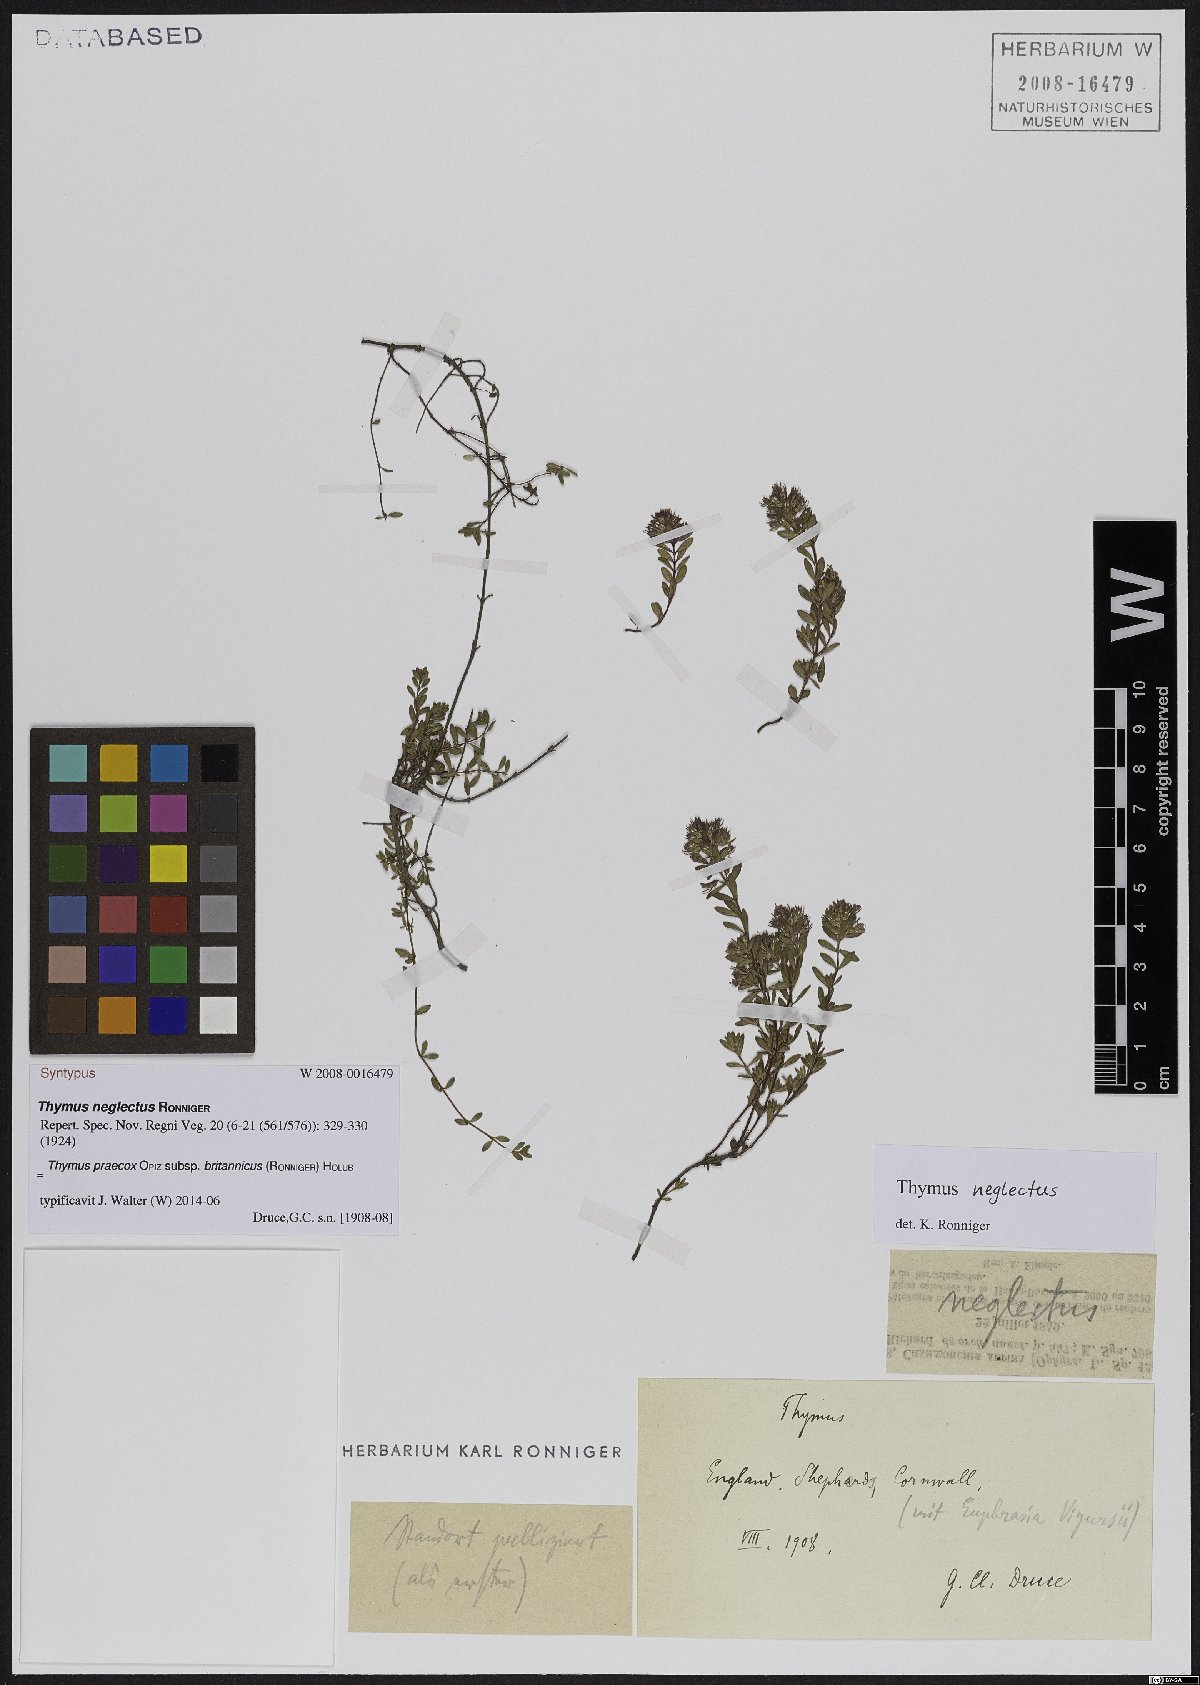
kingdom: Plantae
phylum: Tracheophyta
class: Magnoliopsida
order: Lamiales
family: Lamiaceae
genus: Thymus
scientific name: Thymus praecox
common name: Wild thyme
